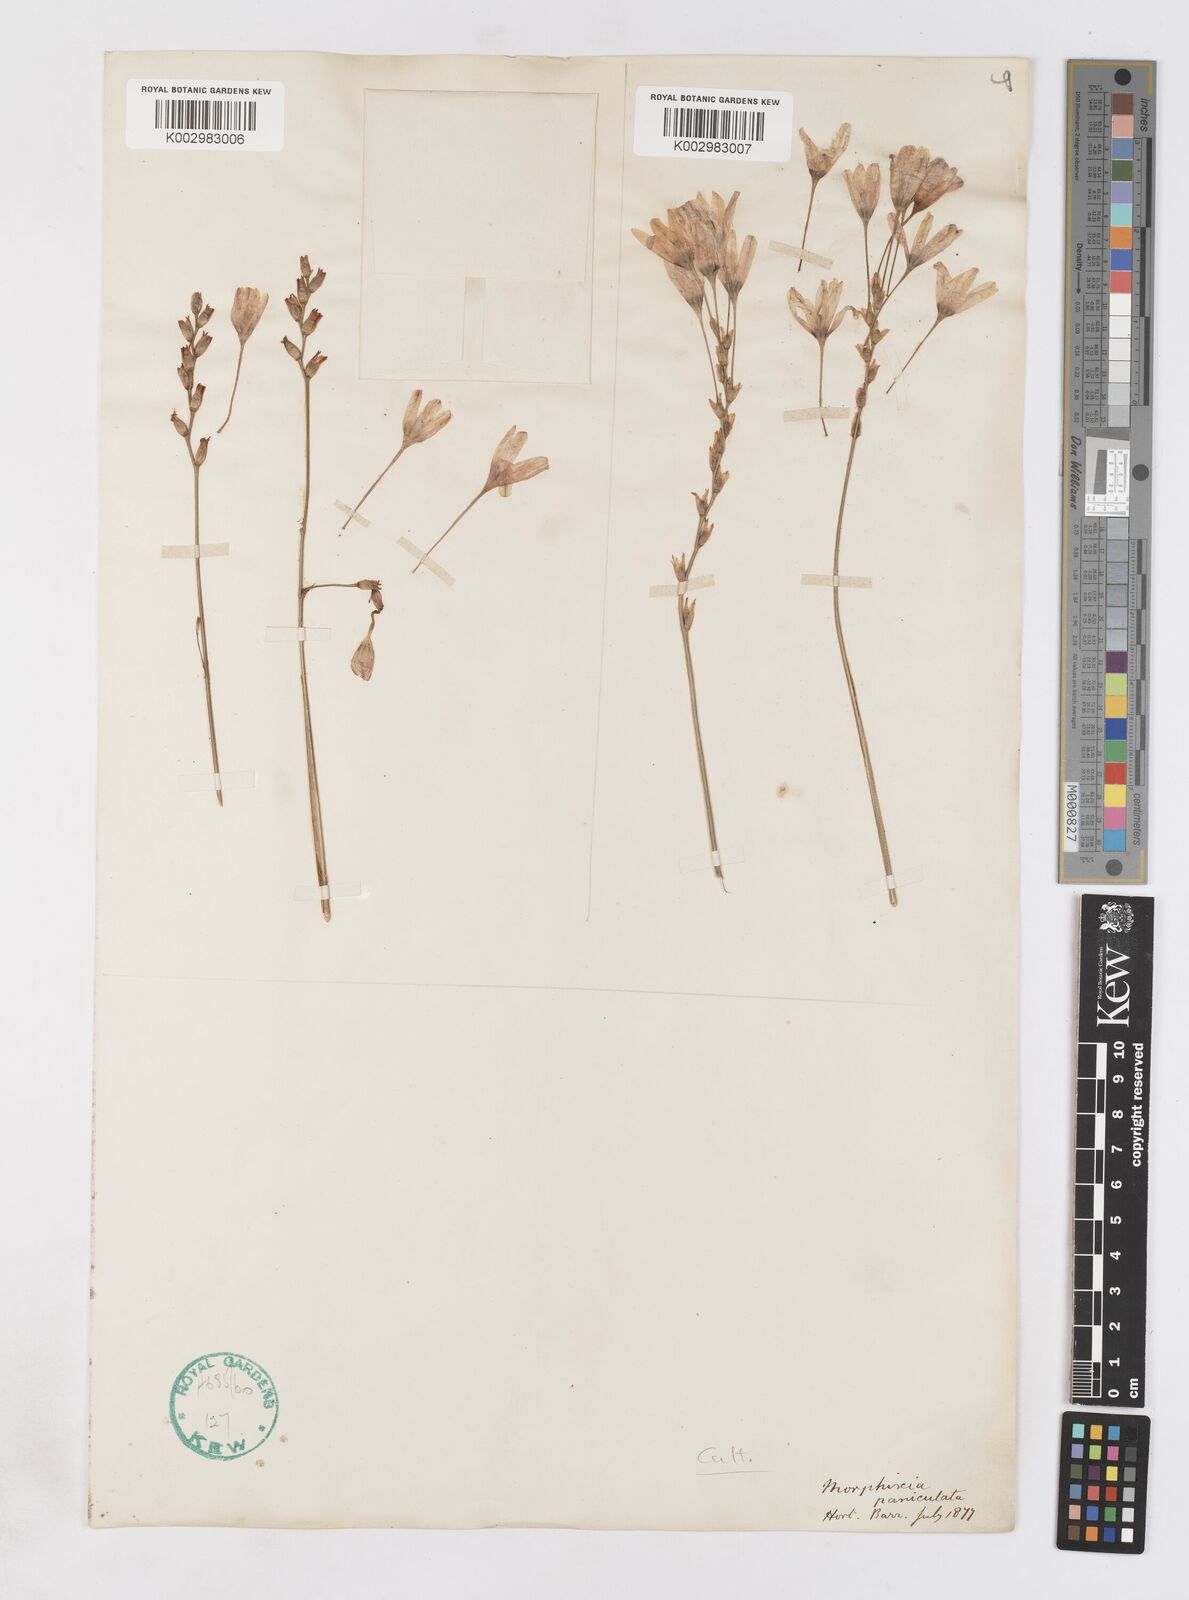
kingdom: Plantae
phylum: Tracheophyta
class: Liliopsida
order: Asparagales
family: Iridaceae
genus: Ixia
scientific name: Ixia paniculata
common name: Tubular corn-lily
